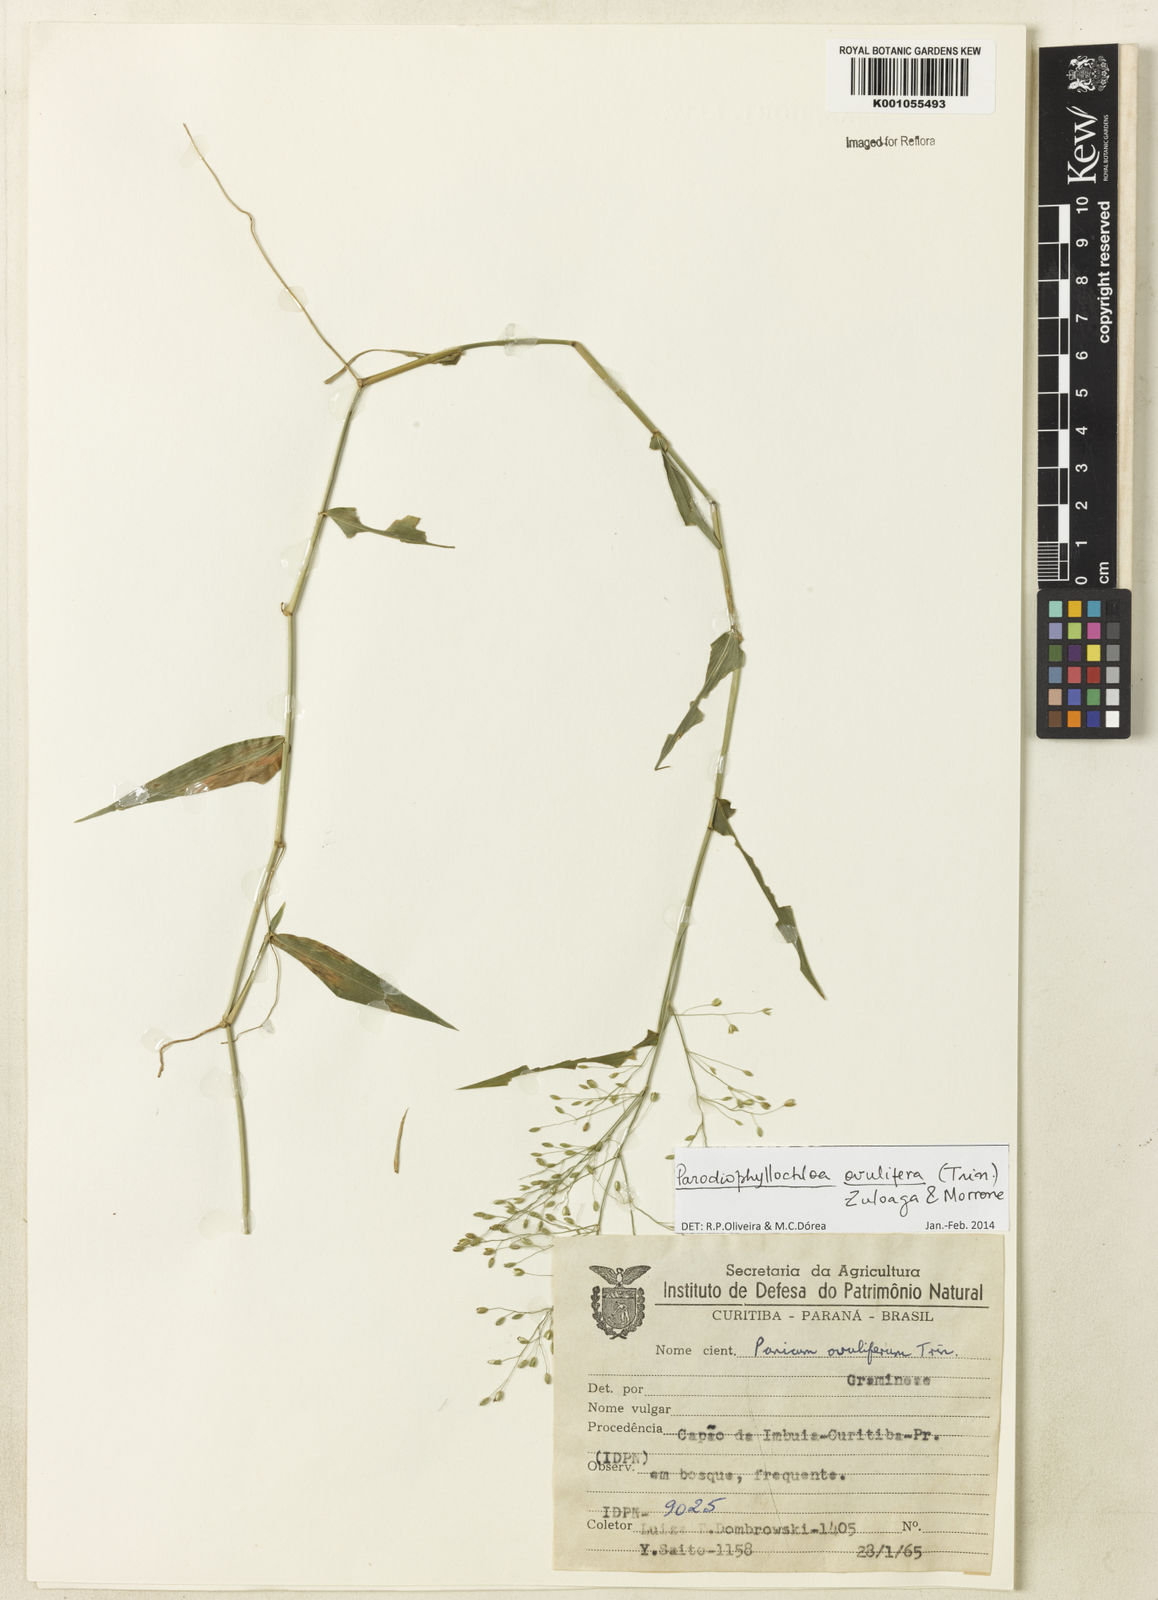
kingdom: Plantae
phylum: Tracheophyta
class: Liliopsida
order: Poales
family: Poaceae
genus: Parodiophyllochloa
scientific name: Parodiophyllochloa ovulifera
